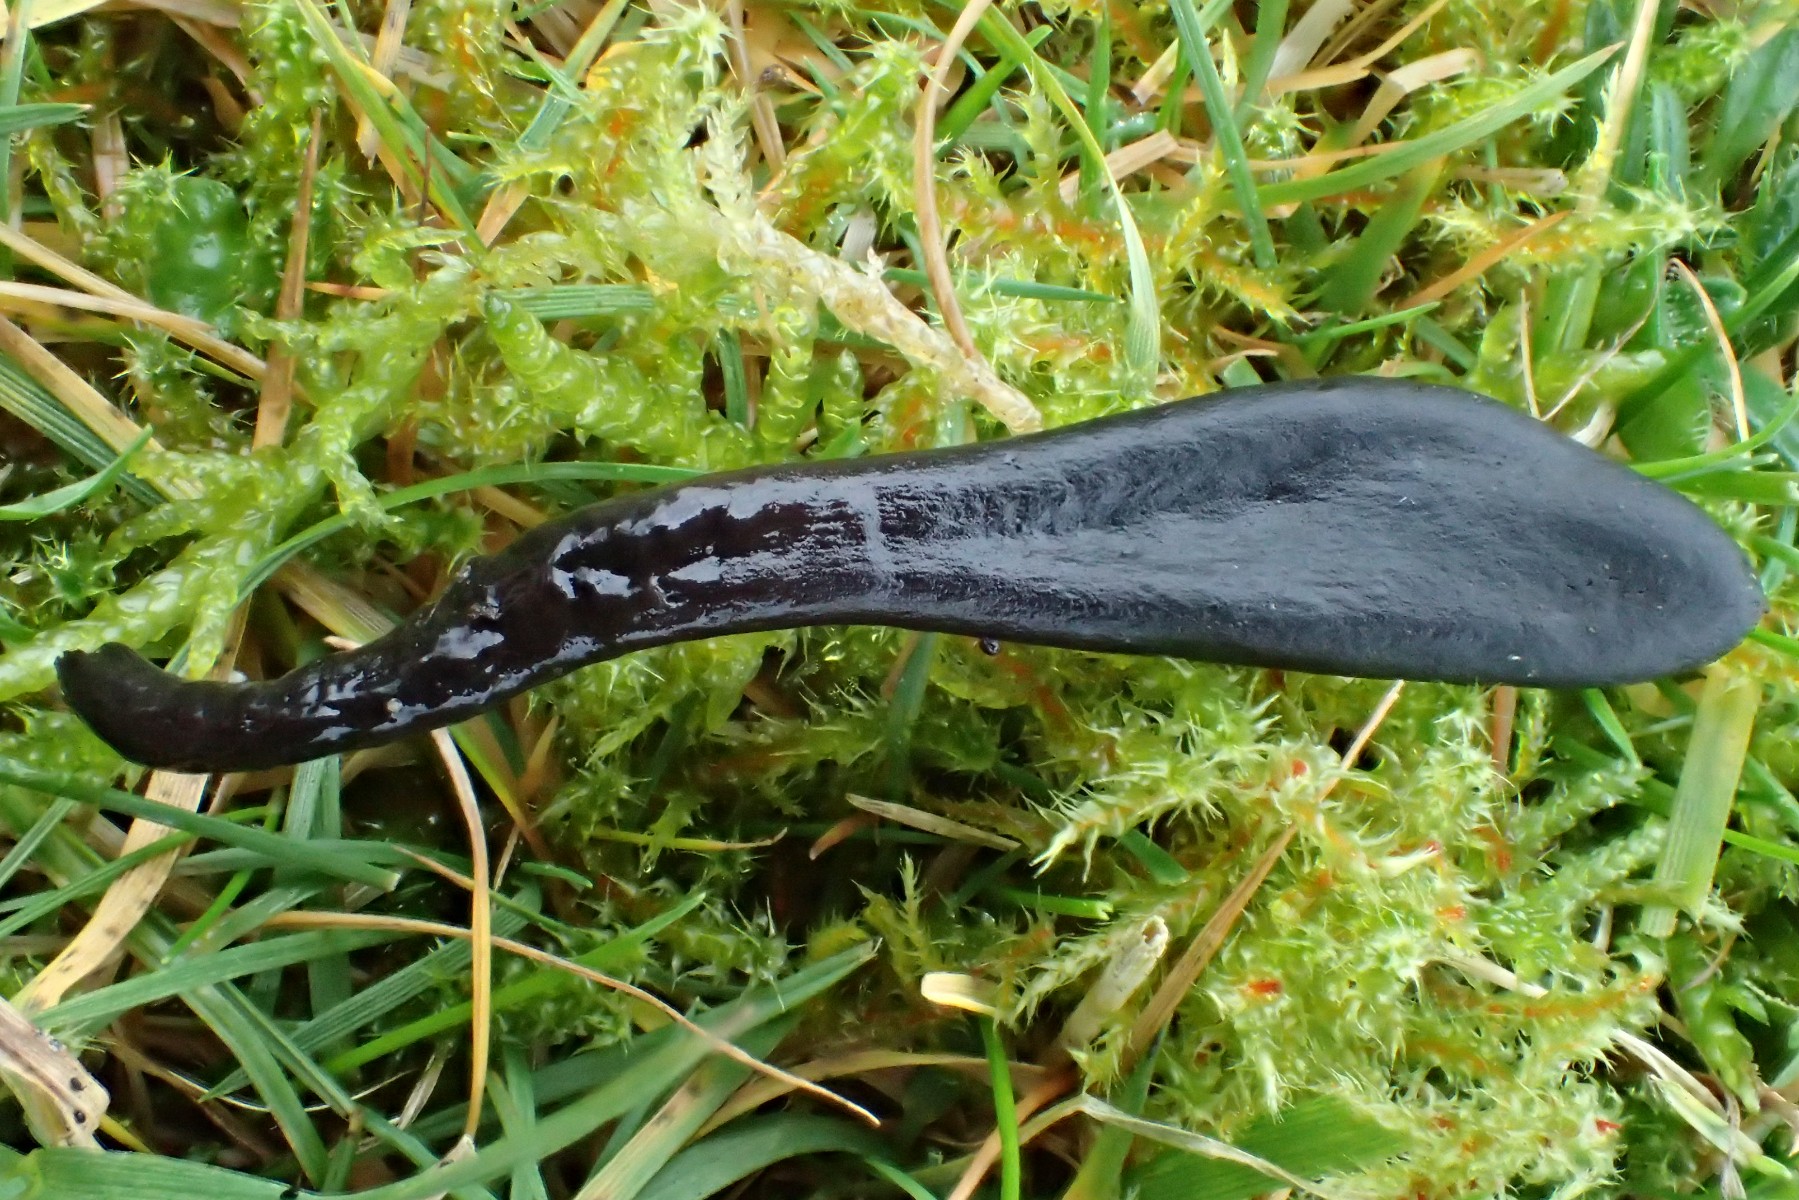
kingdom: Fungi
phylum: Ascomycota
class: Geoglossomycetes
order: Geoglossales
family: Geoglossaceae
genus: Glutinoglossum
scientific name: Glutinoglossum glutinosum
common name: slimet jordtunge
